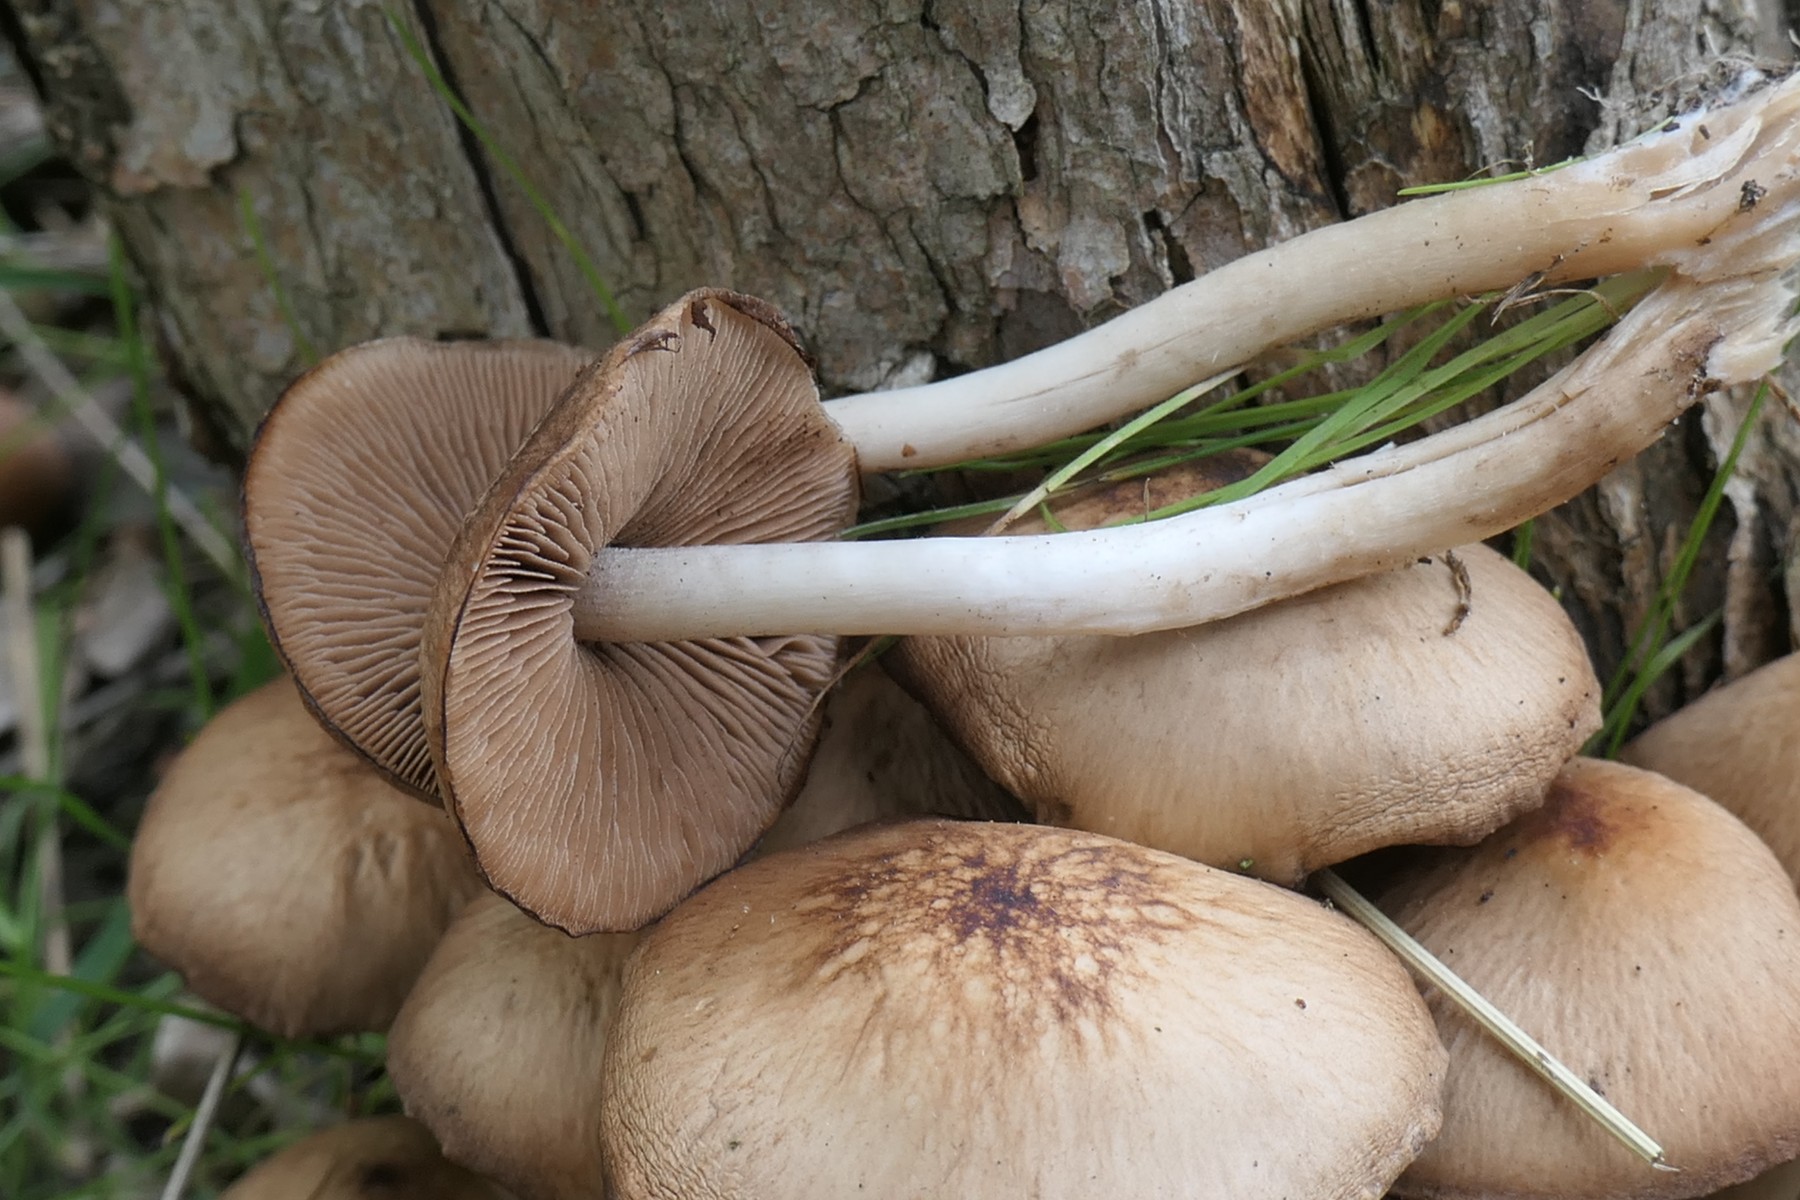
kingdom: Fungi
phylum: Basidiomycota
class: Agaricomycetes
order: Agaricales
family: Psathyrellaceae
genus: Psathyrella
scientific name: Psathyrella piluliformis
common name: lysstokket mørkhat
